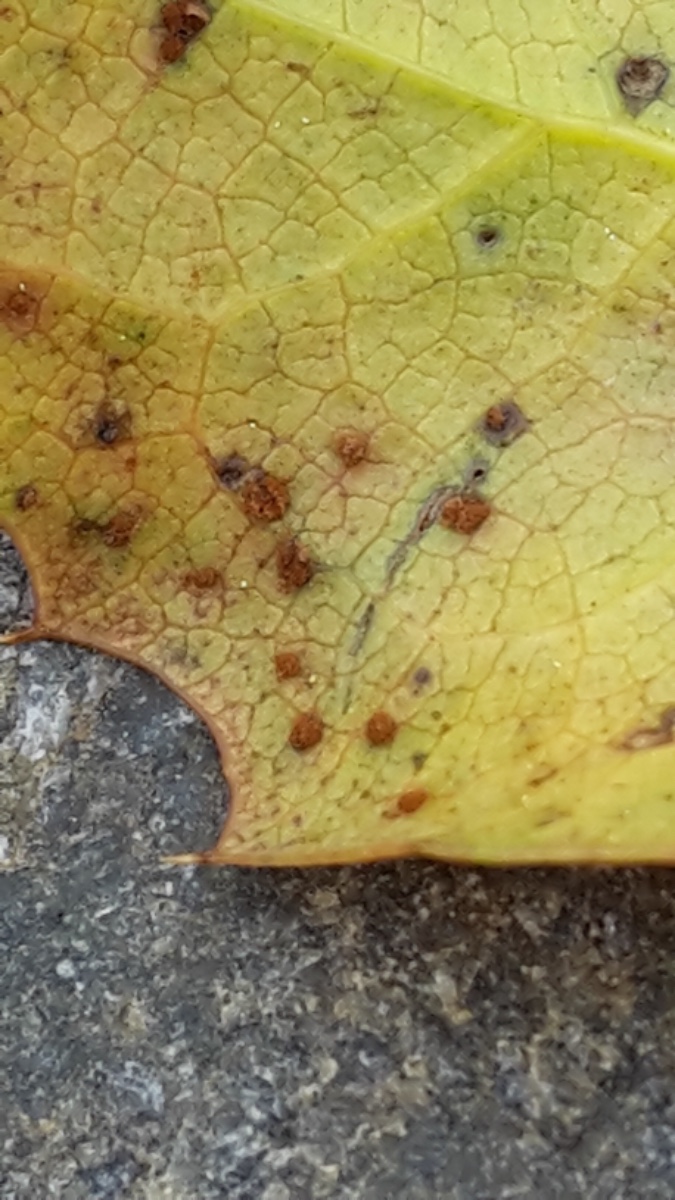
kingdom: Fungi
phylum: Basidiomycota
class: Pucciniomycetes
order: Pucciniales
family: Pucciniaceae
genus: Cumminsiella
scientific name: Cumminsiella mirabilissima
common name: mahonierust
